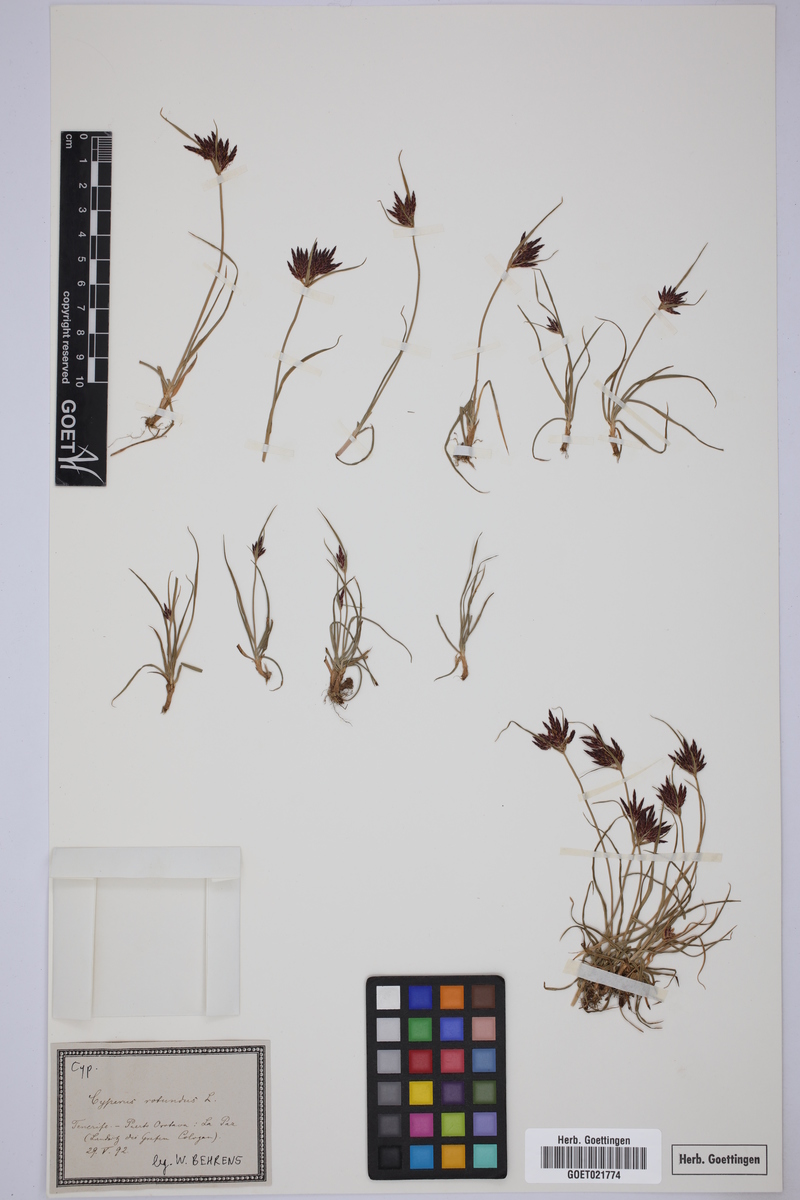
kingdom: Plantae
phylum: Tracheophyta
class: Liliopsida
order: Poales
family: Cyperaceae
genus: Cyperus
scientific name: Cyperus rotundus
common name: Nutgrass
